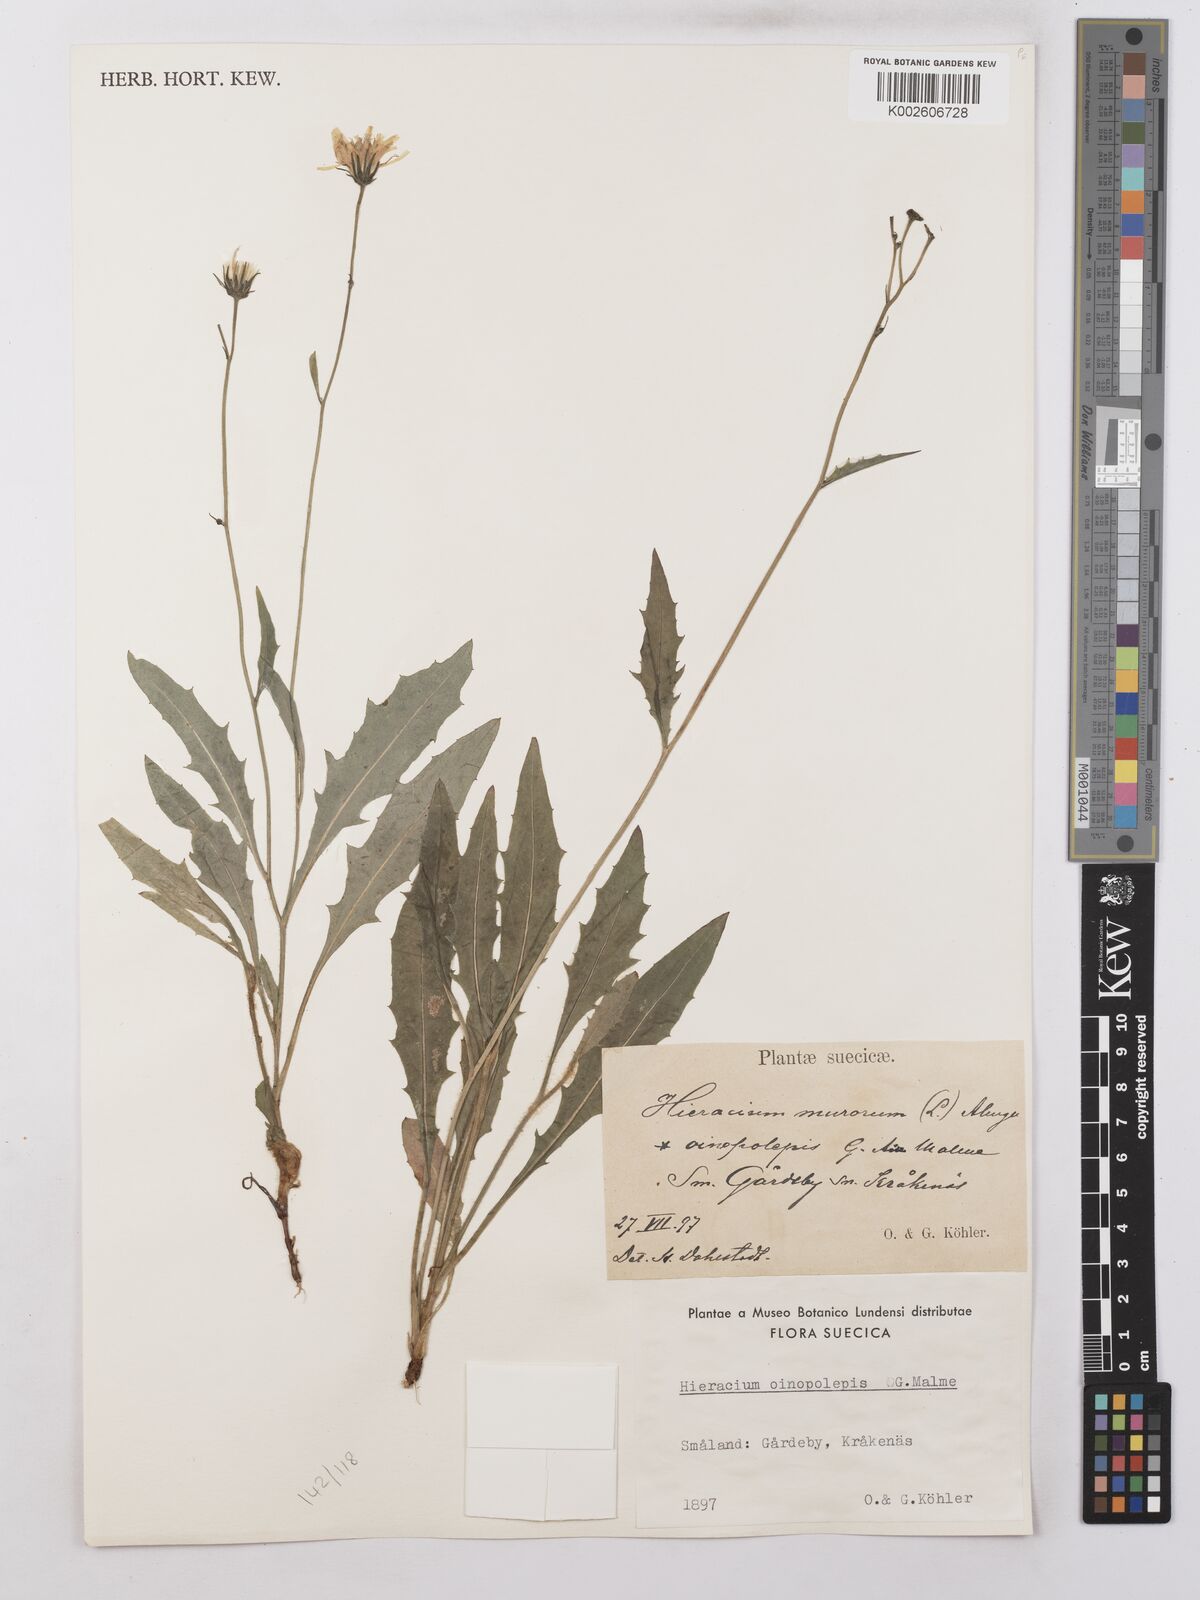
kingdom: Plantae
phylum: Tracheophyta
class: Magnoliopsida
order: Asterales
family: Asteraceae
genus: Hieracium
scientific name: Hieracium lachenalii
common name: Common hawkweed
